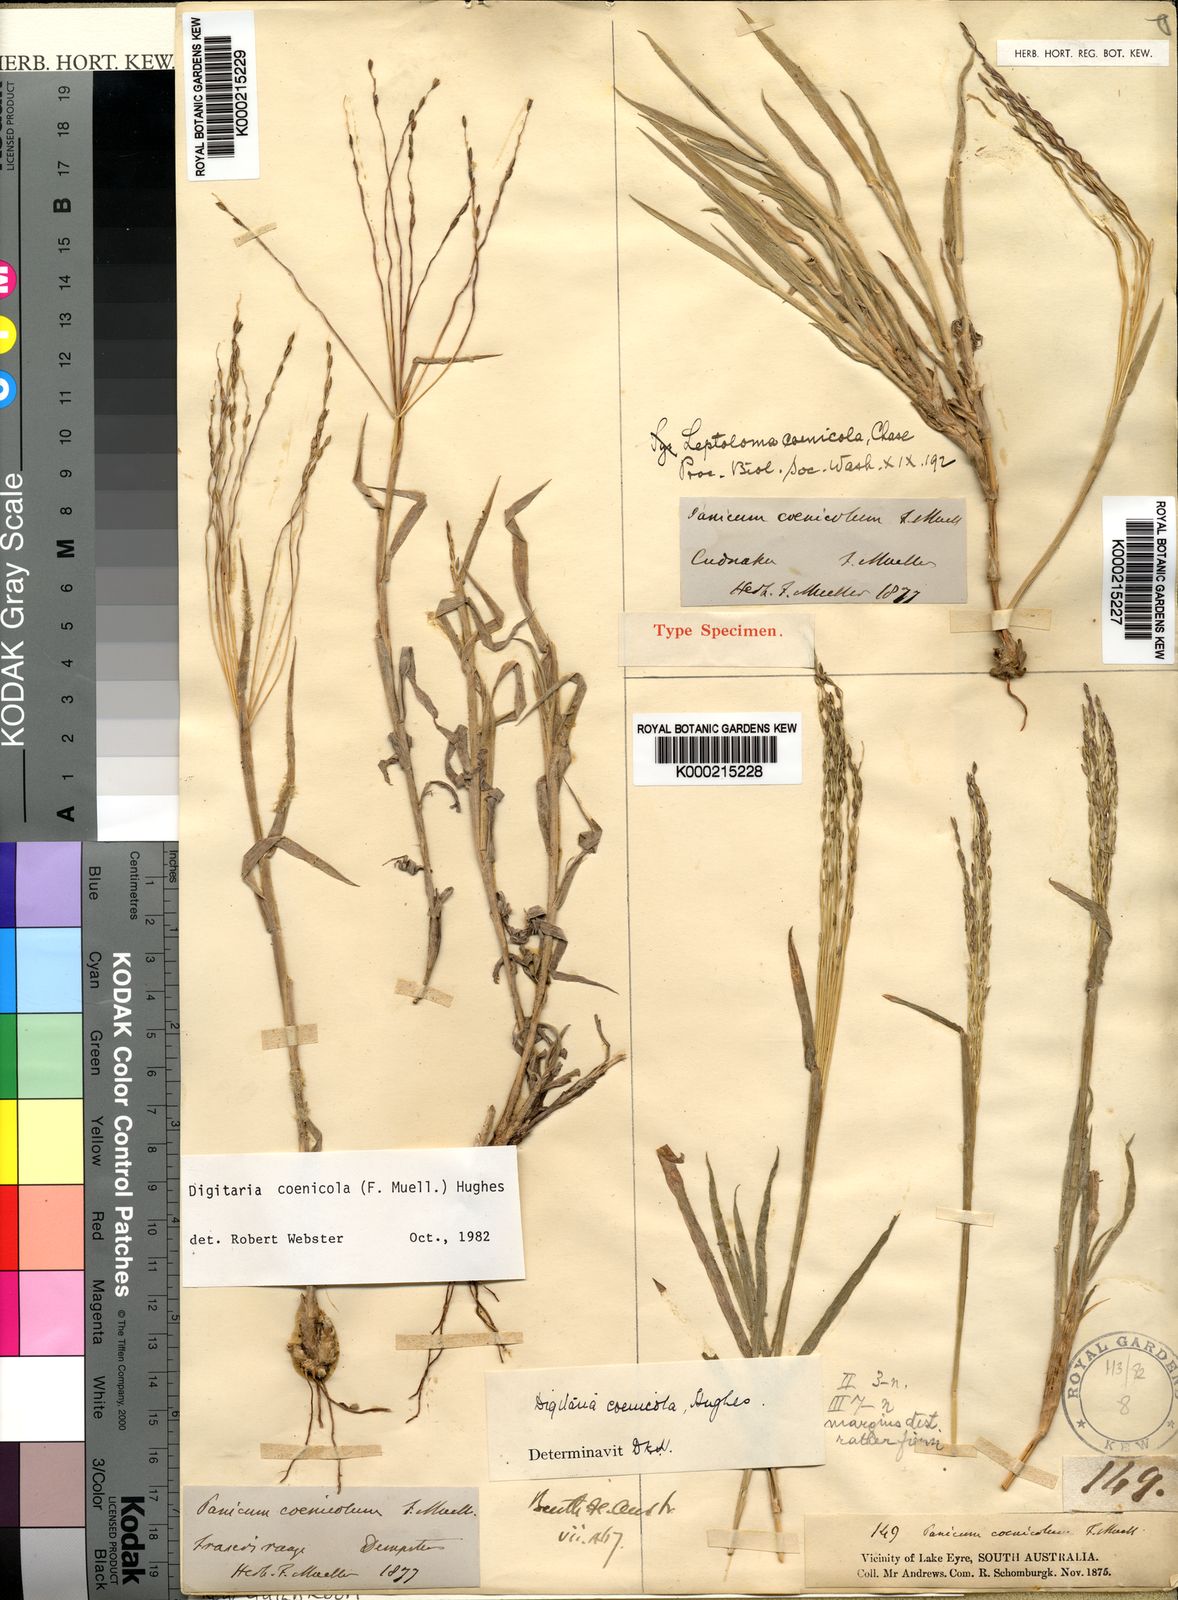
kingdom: Plantae
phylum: Tracheophyta
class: Liliopsida
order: Poales
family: Poaceae
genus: Digitaria
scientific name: Digitaria coenicola
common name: Kanta grass
